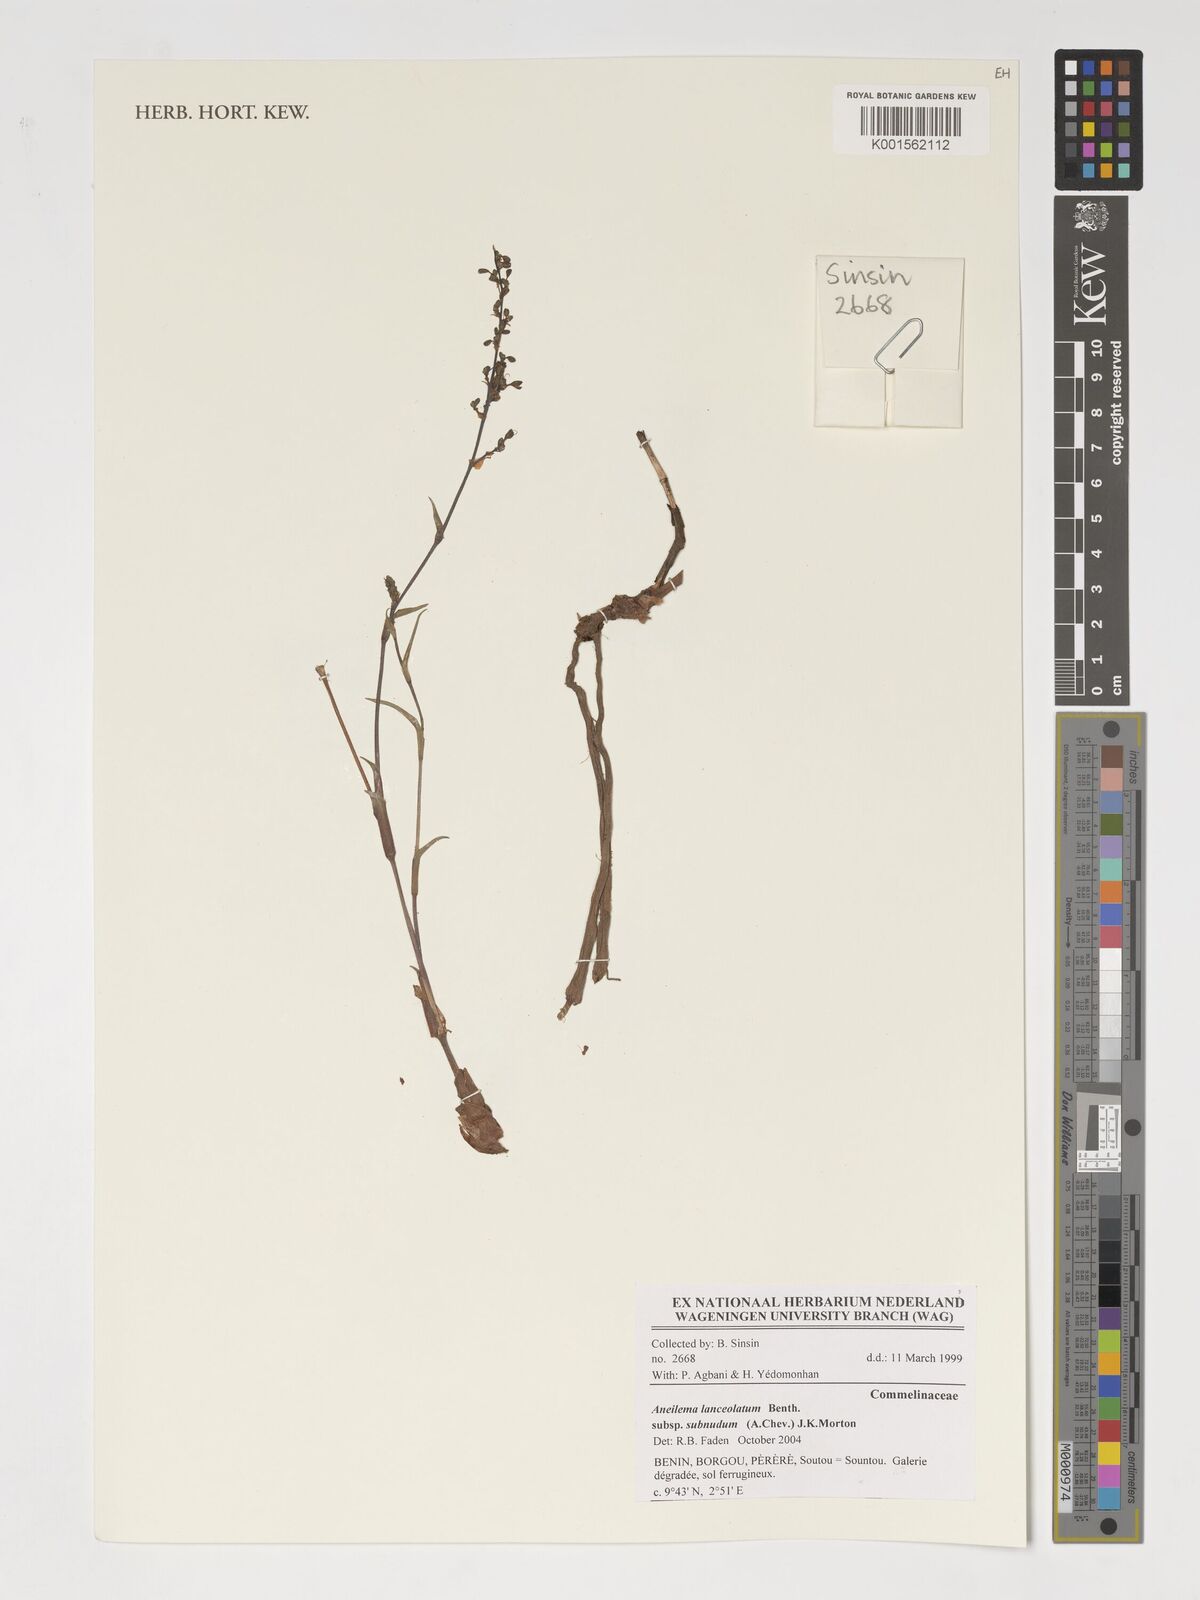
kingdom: Plantae
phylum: Tracheophyta
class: Liliopsida
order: Commelinales
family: Commelinaceae
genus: Aneilema
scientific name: Aneilema lanceolatum
